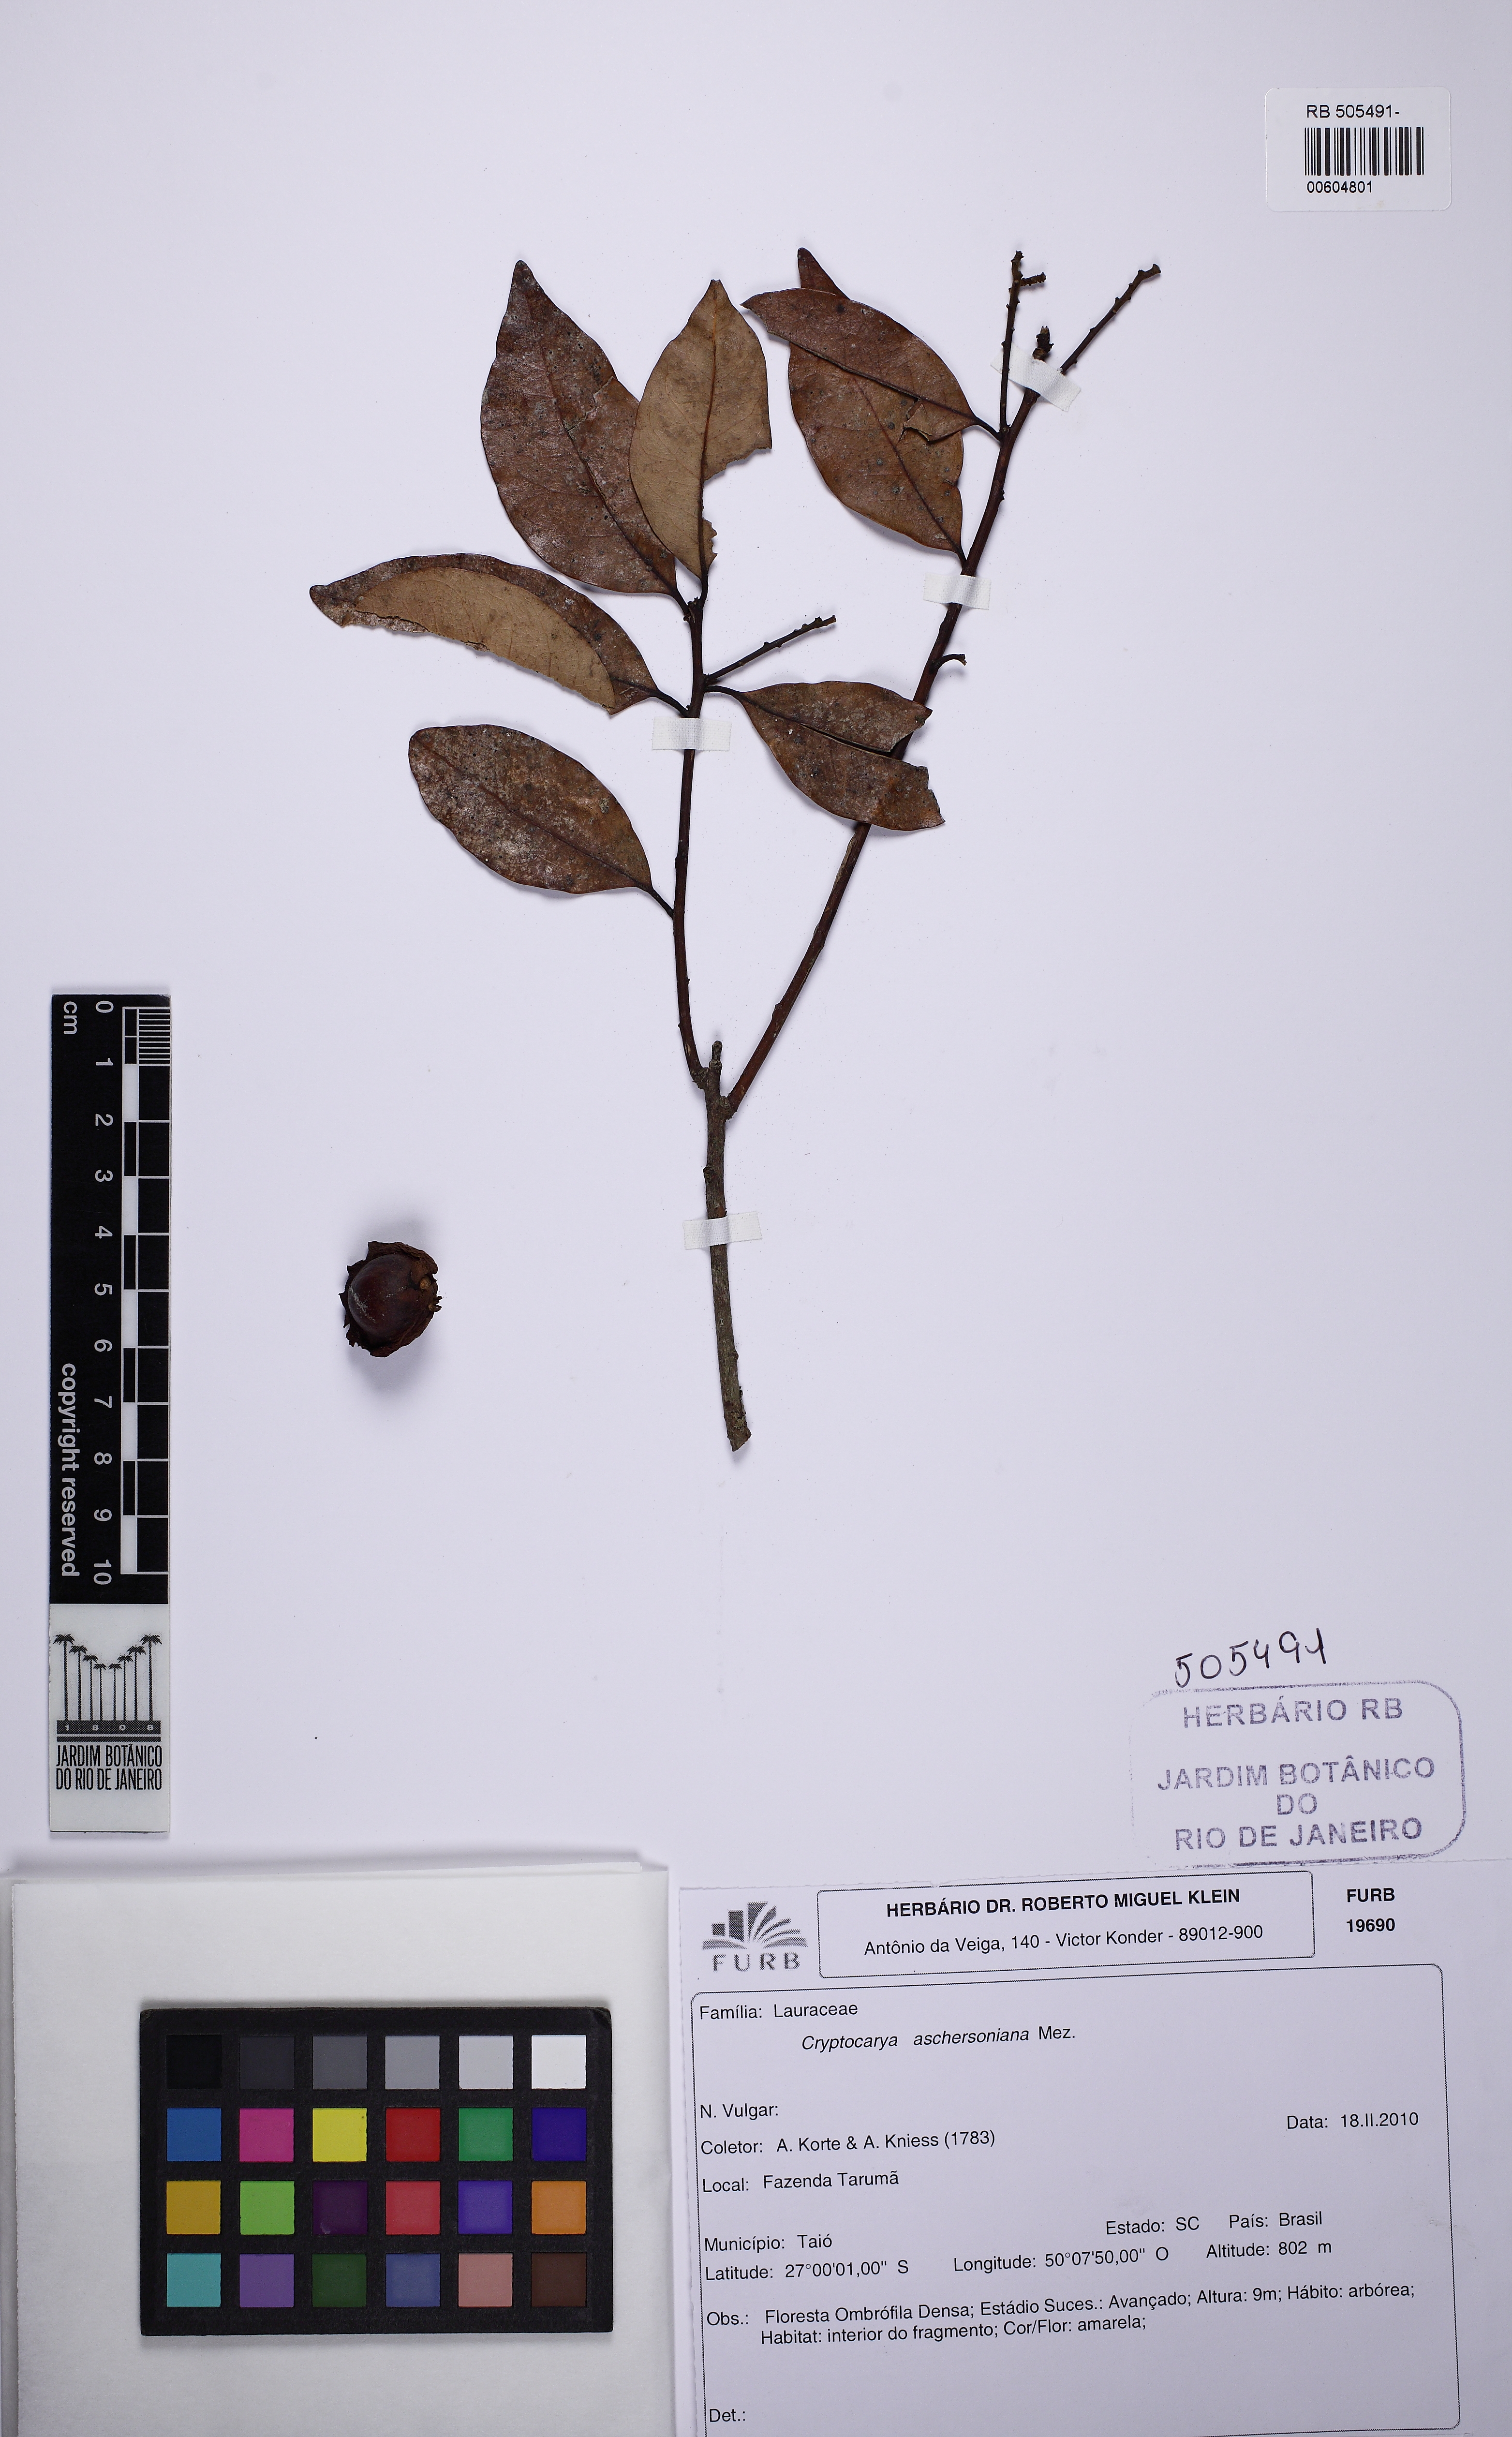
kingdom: Plantae
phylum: Tracheophyta
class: Magnoliopsida
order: Laurales
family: Lauraceae
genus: Cryptocarya
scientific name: Cryptocarya aschersoniana
